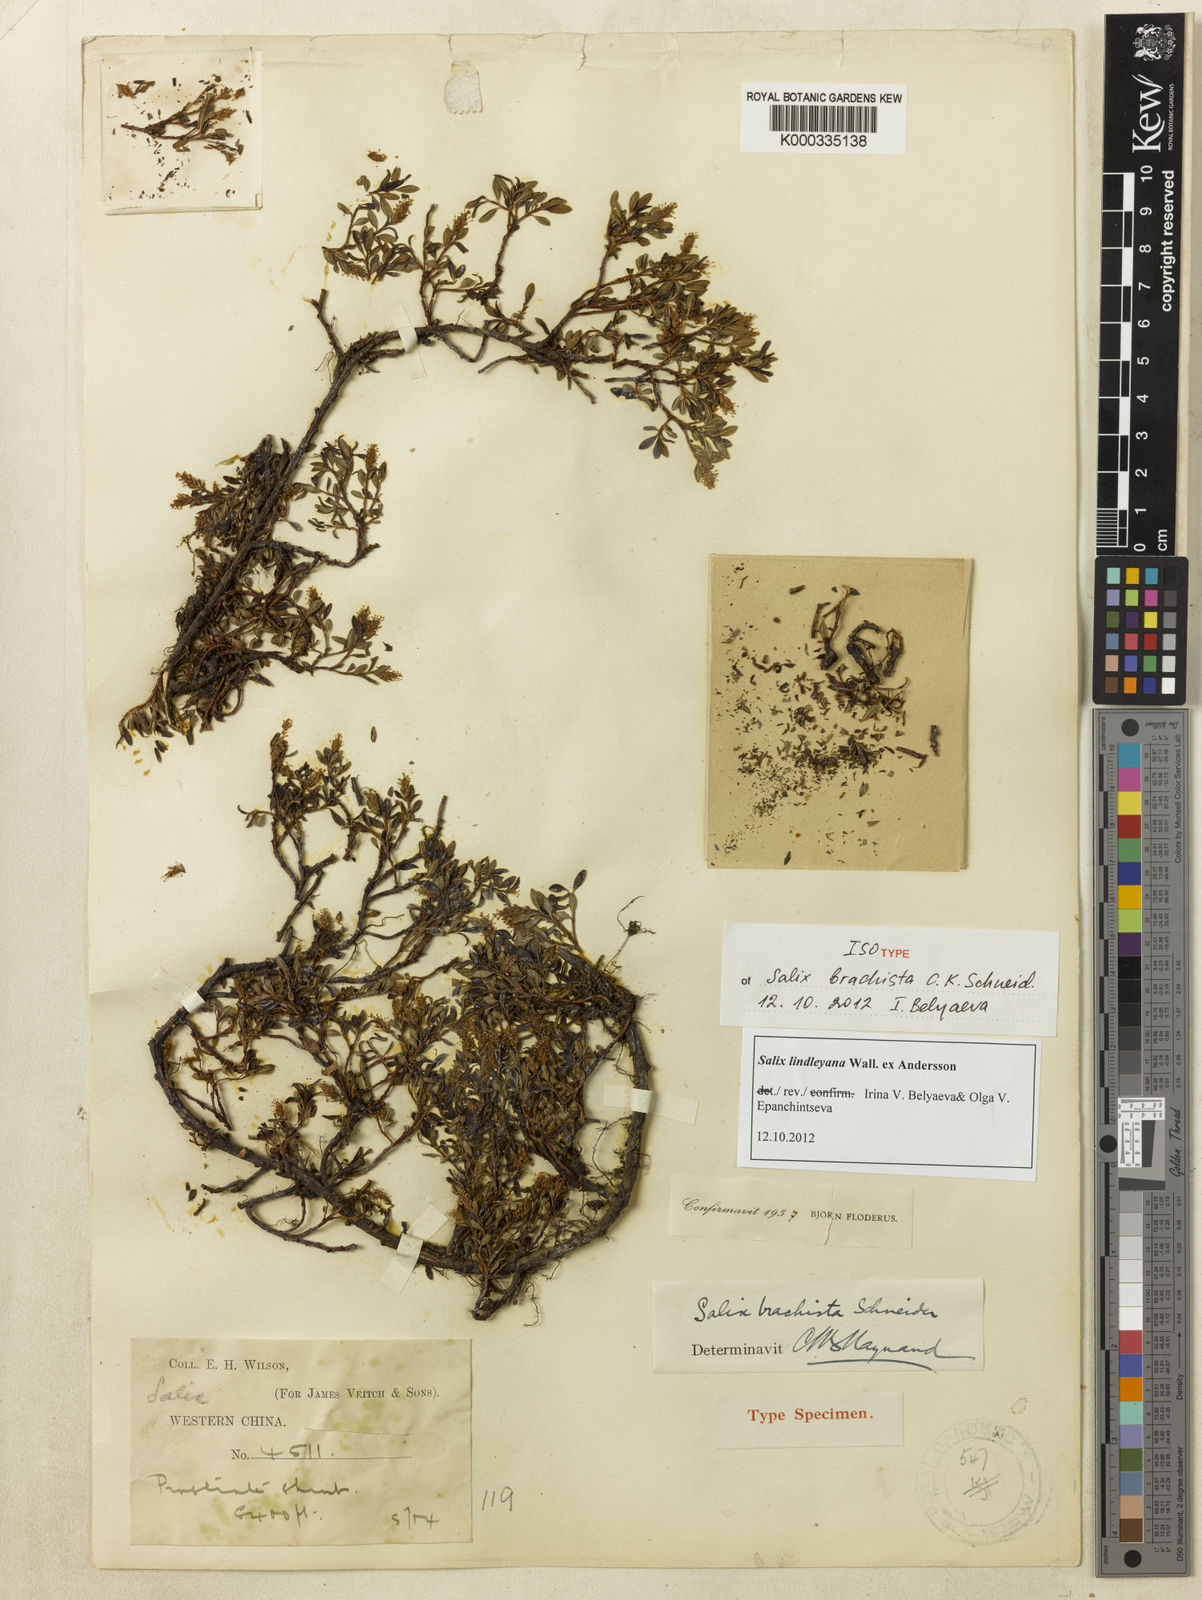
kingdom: Plantae
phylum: Tracheophyta
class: Magnoliopsida
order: Malpighiales
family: Salicaceae
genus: Salix
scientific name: Salix lindleyana
